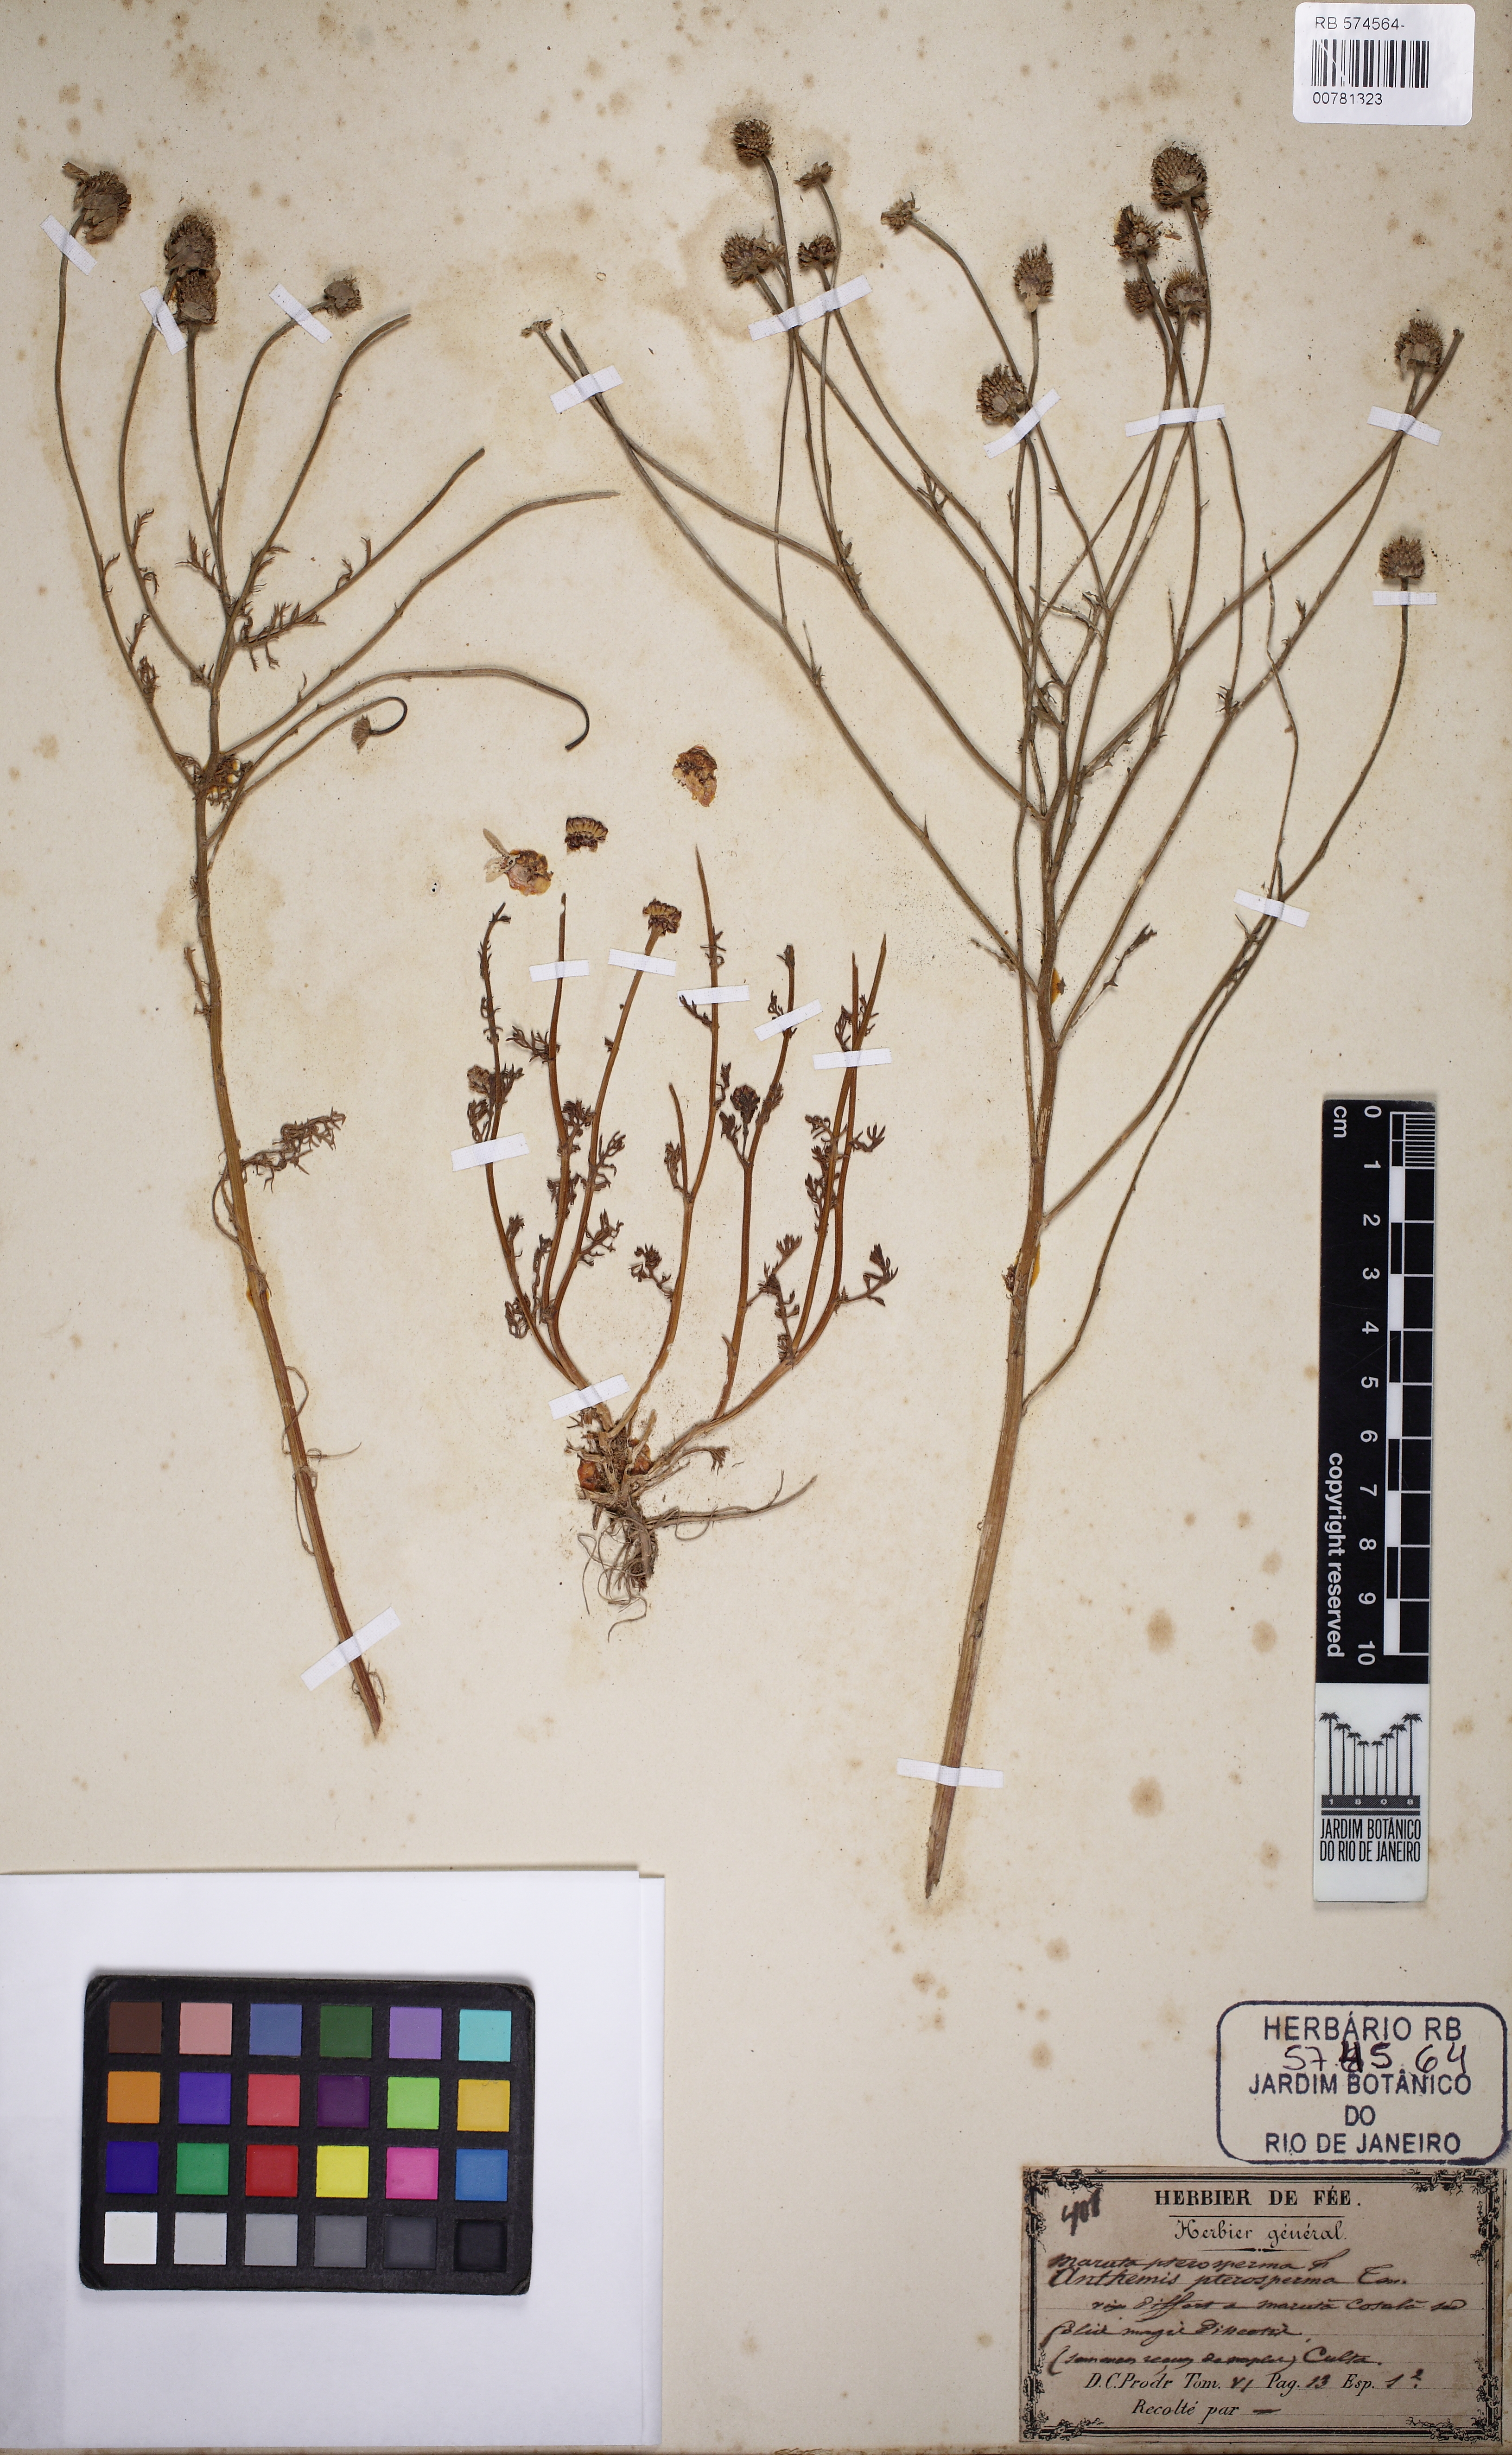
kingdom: Plantae
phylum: Tracheophyta
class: Magnoliopsida
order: Asterales
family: Asteraceae
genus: Maruta
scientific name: Maruta
